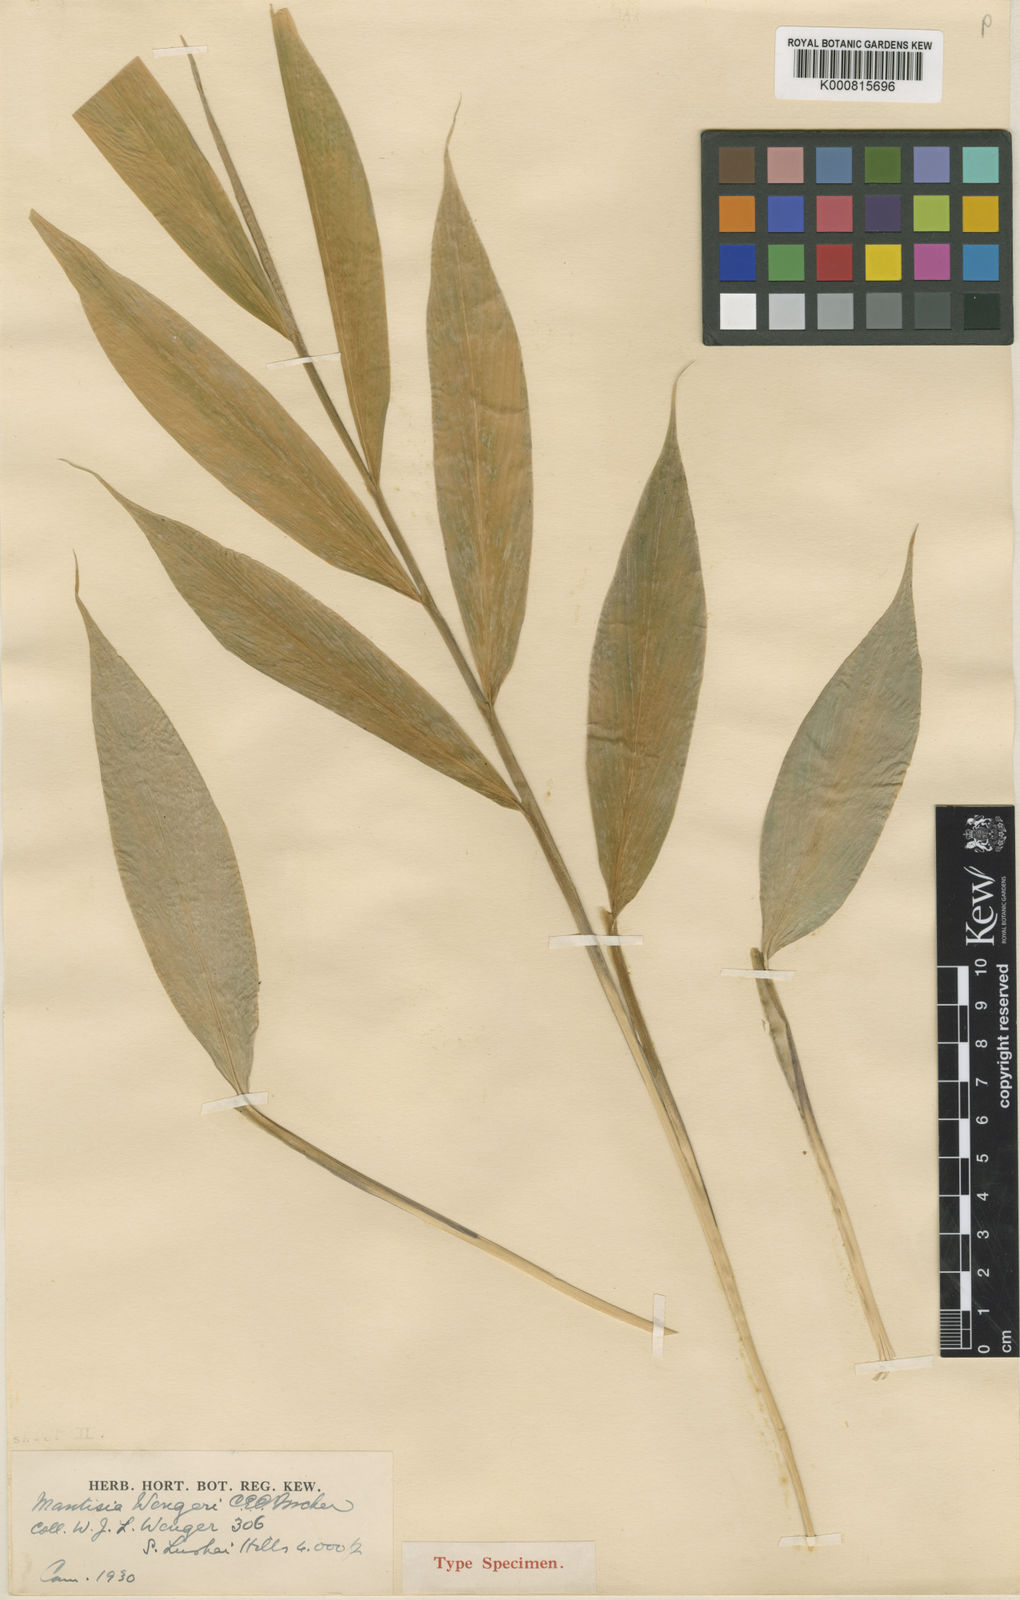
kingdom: Plantae
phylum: Tracheophyta
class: Liliopsida
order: Zingiberales
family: Zingiberaceae
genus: Globba
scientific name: Globba wengeri
